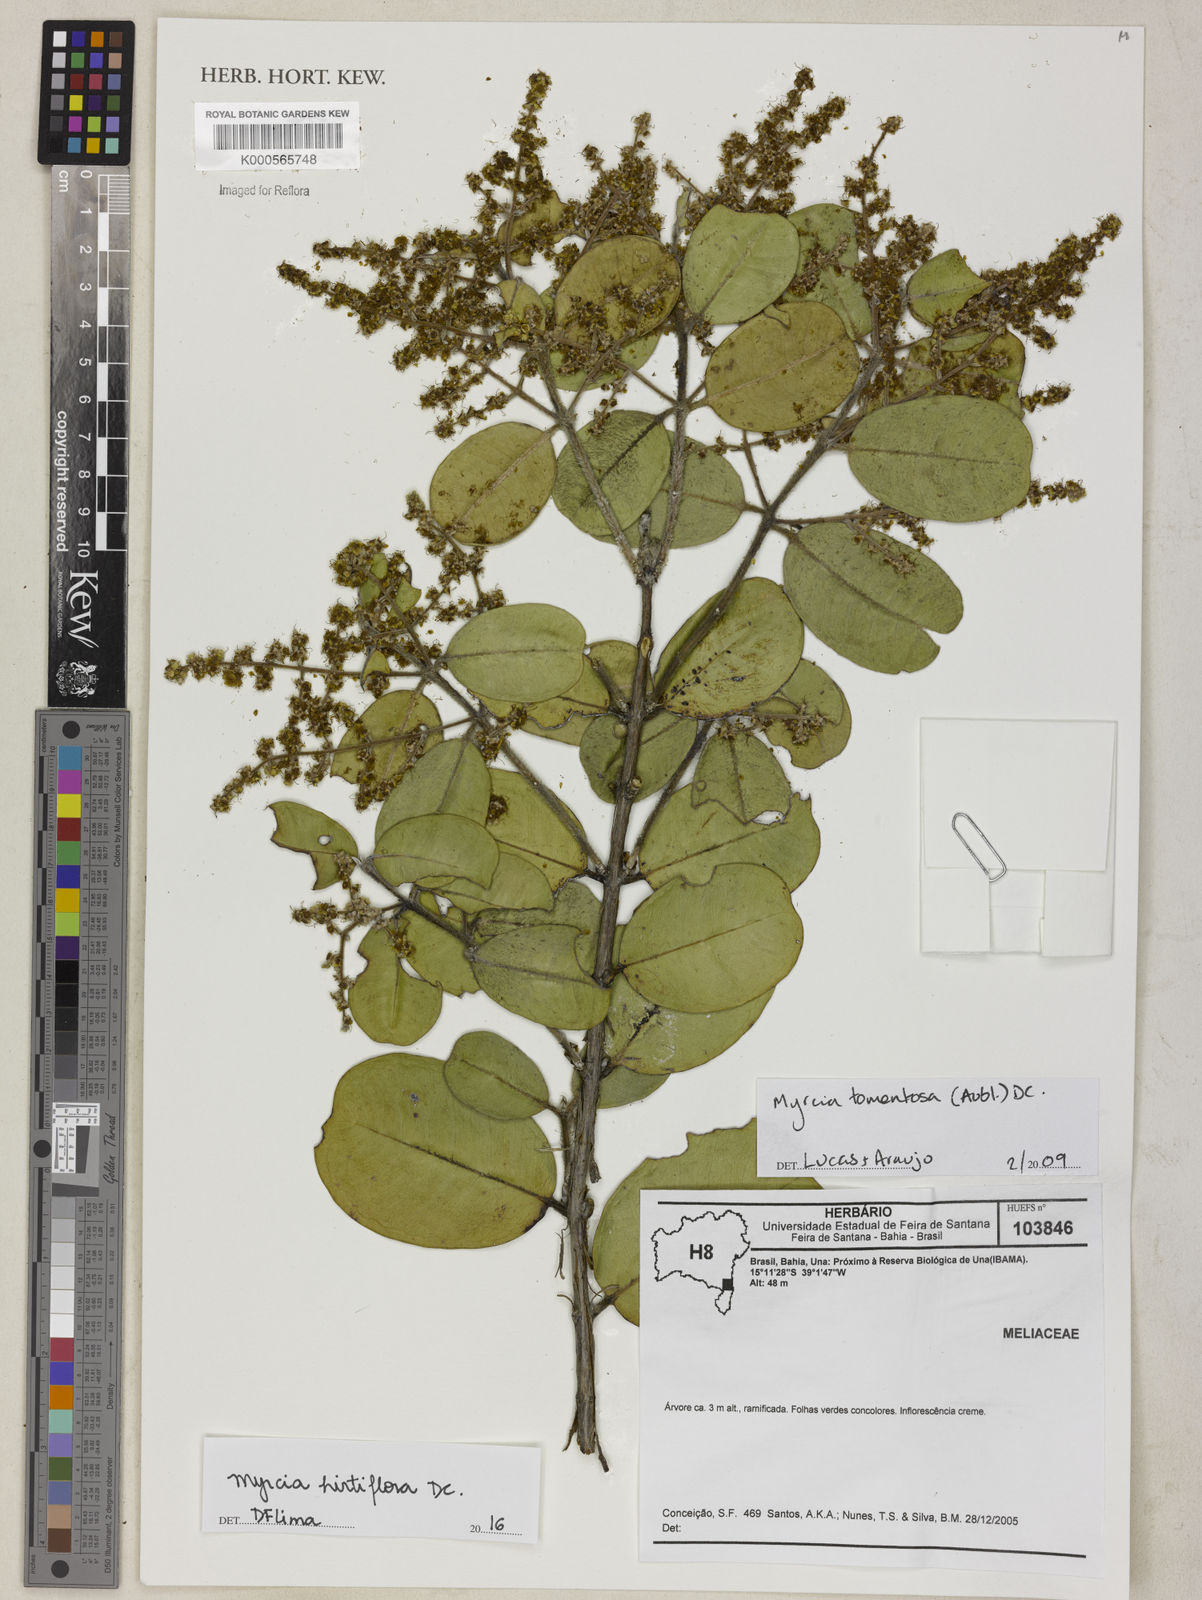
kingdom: Plantae
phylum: Tracheophyta
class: Magnoliopsida
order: Myrtales
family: Myrtaceae
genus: Myrcia
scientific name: Myrcia tomentosa
